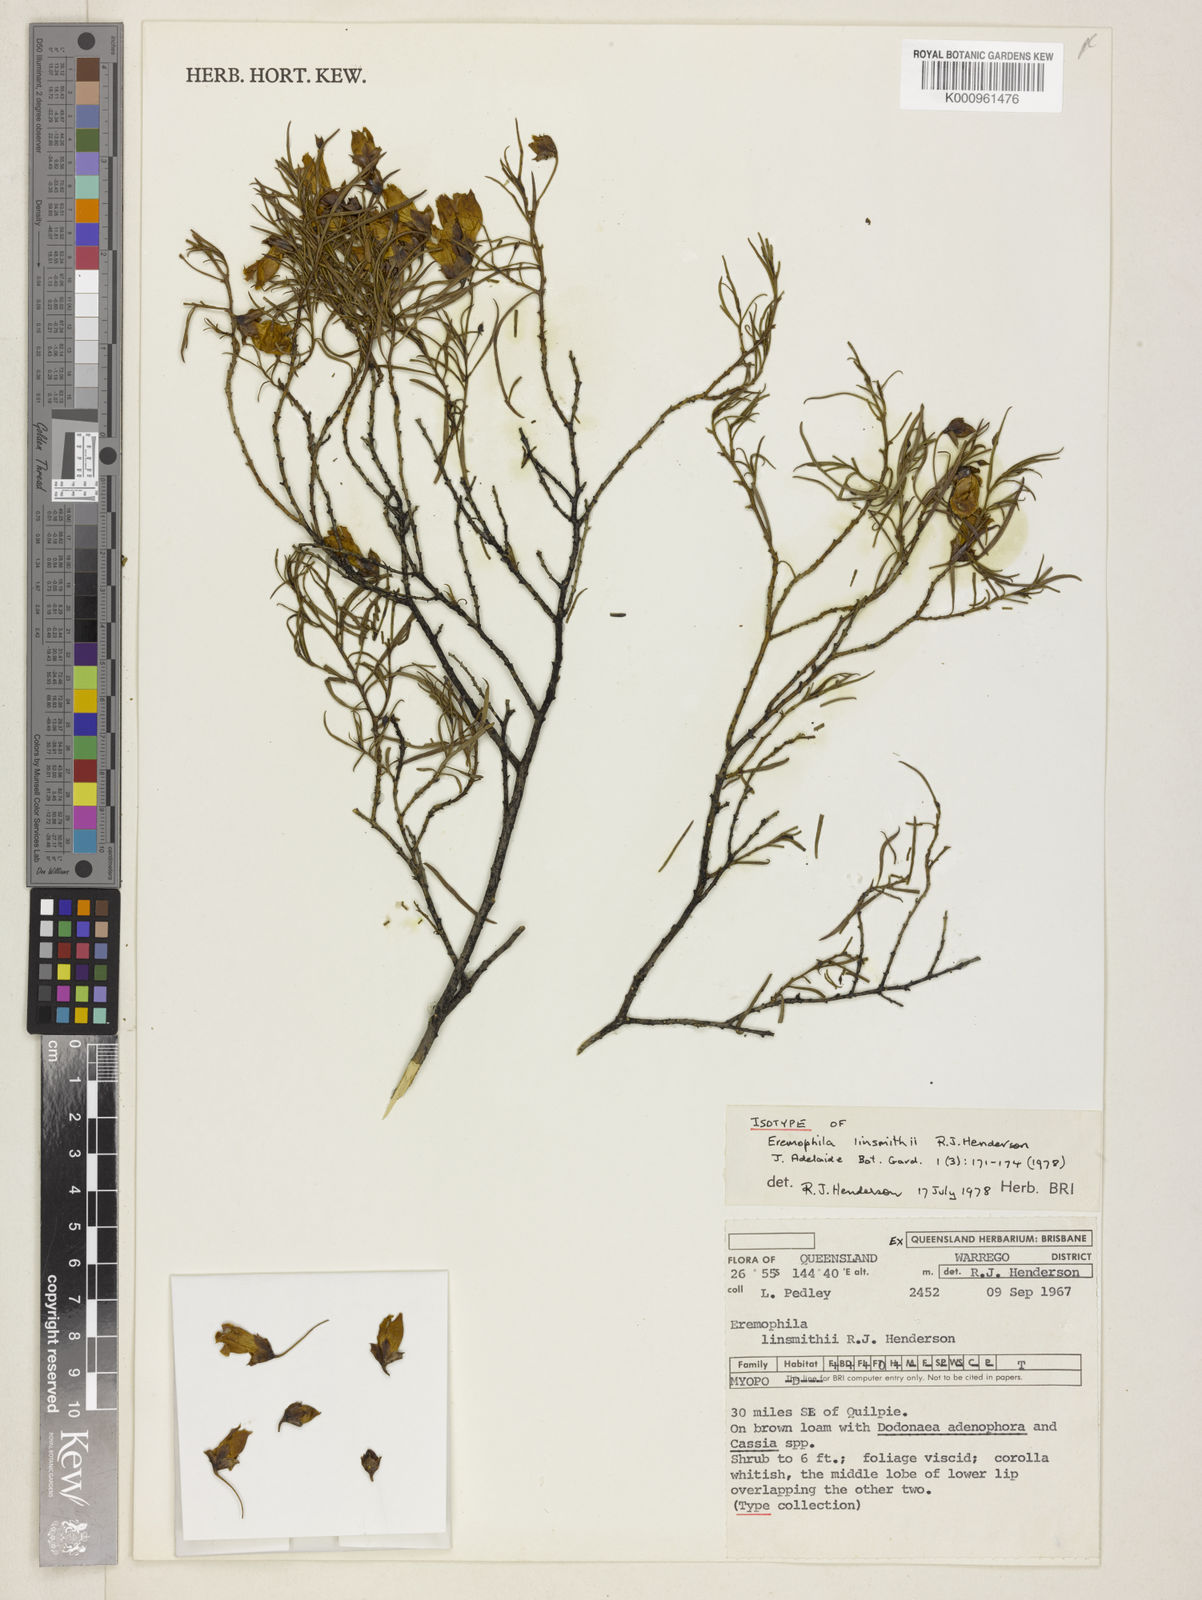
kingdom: Plantae
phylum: Tracheophyta
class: Magnoliopsida
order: Lamiales
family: Scrophulariaceae
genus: Eremophila
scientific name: Eremophila linsmithii
